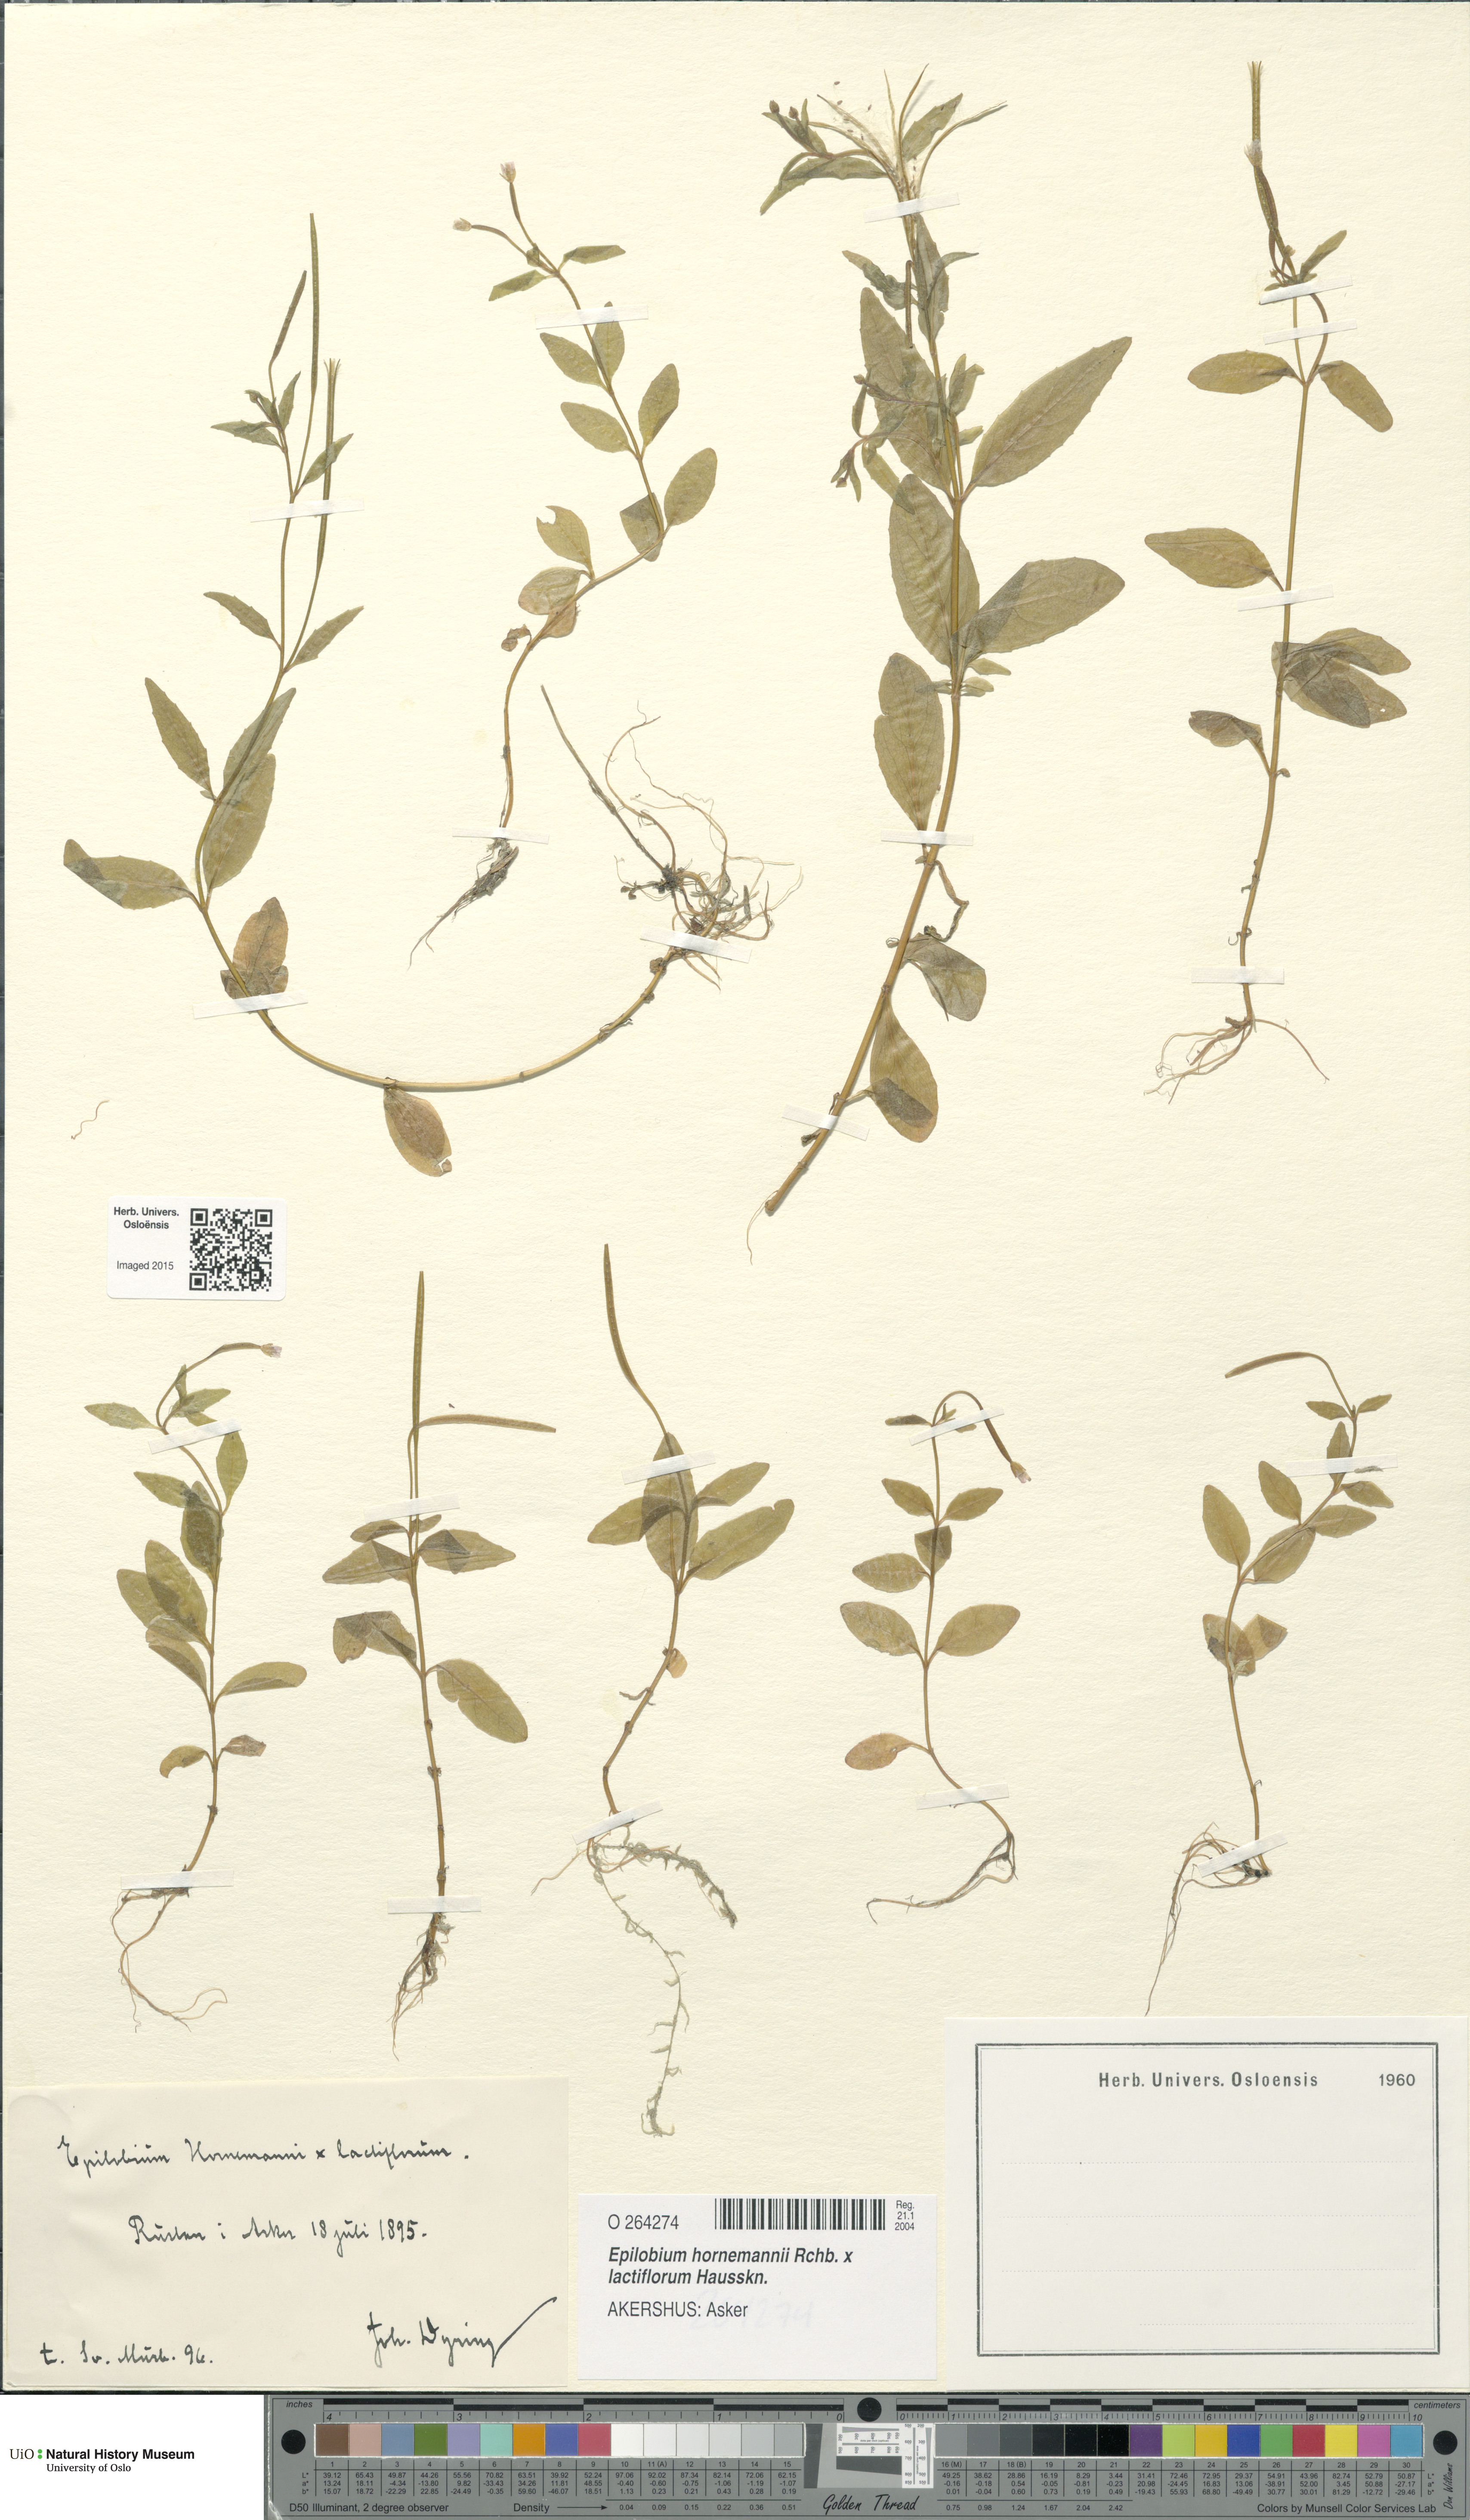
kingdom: Plantae
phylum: Tracheophyta
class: Magnoliopsida
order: Myrtales
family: Onagraceae
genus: Epilobium
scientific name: Epilobium
